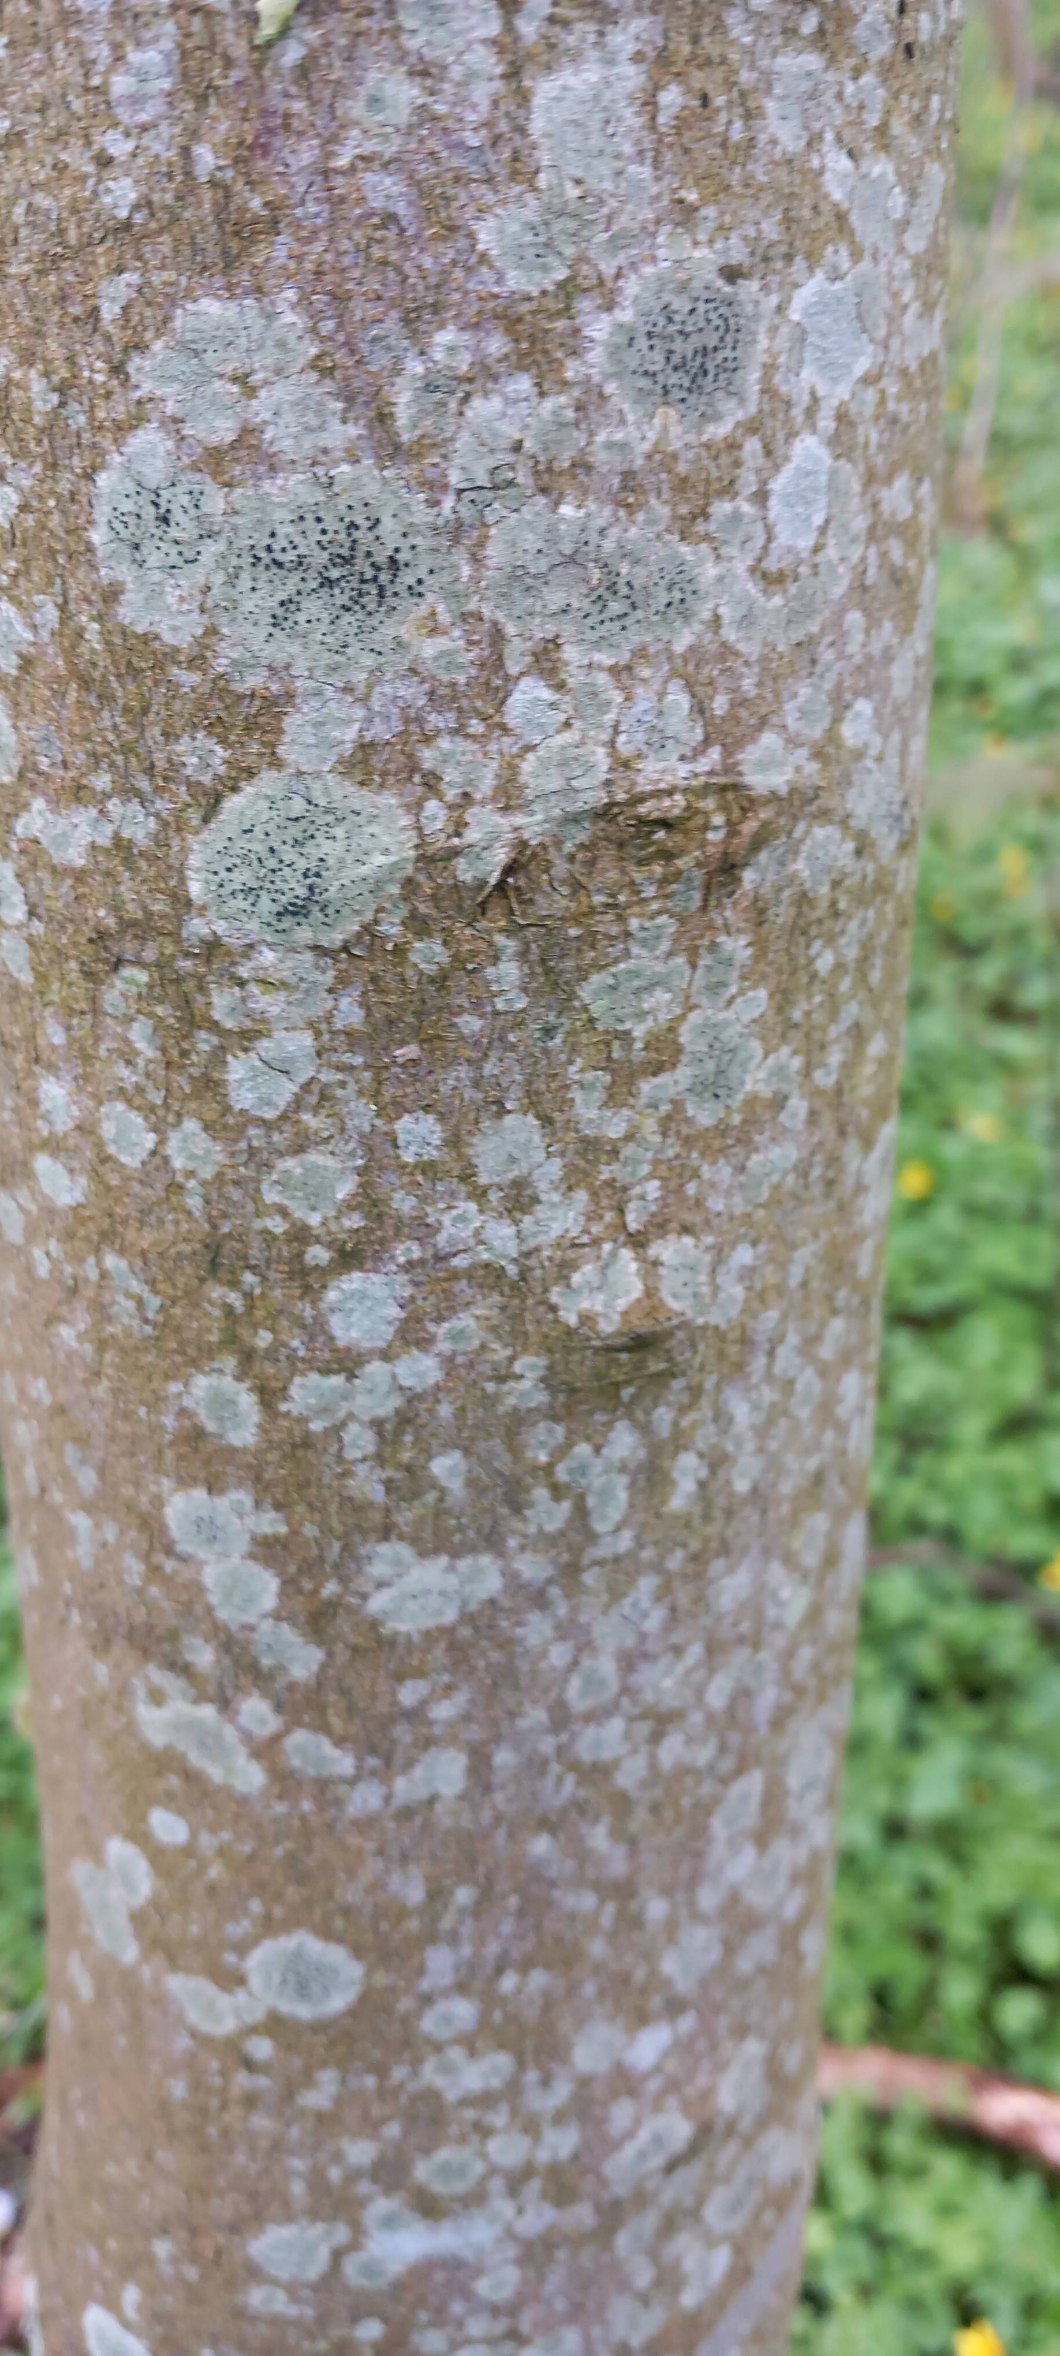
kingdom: Fungi
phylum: Ascomycota
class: Lecanoromycetes
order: Lecanorales
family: Lecanoraceae
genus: Lecidella
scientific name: Lecidella elaeochroma
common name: Grågrøn skivelav
